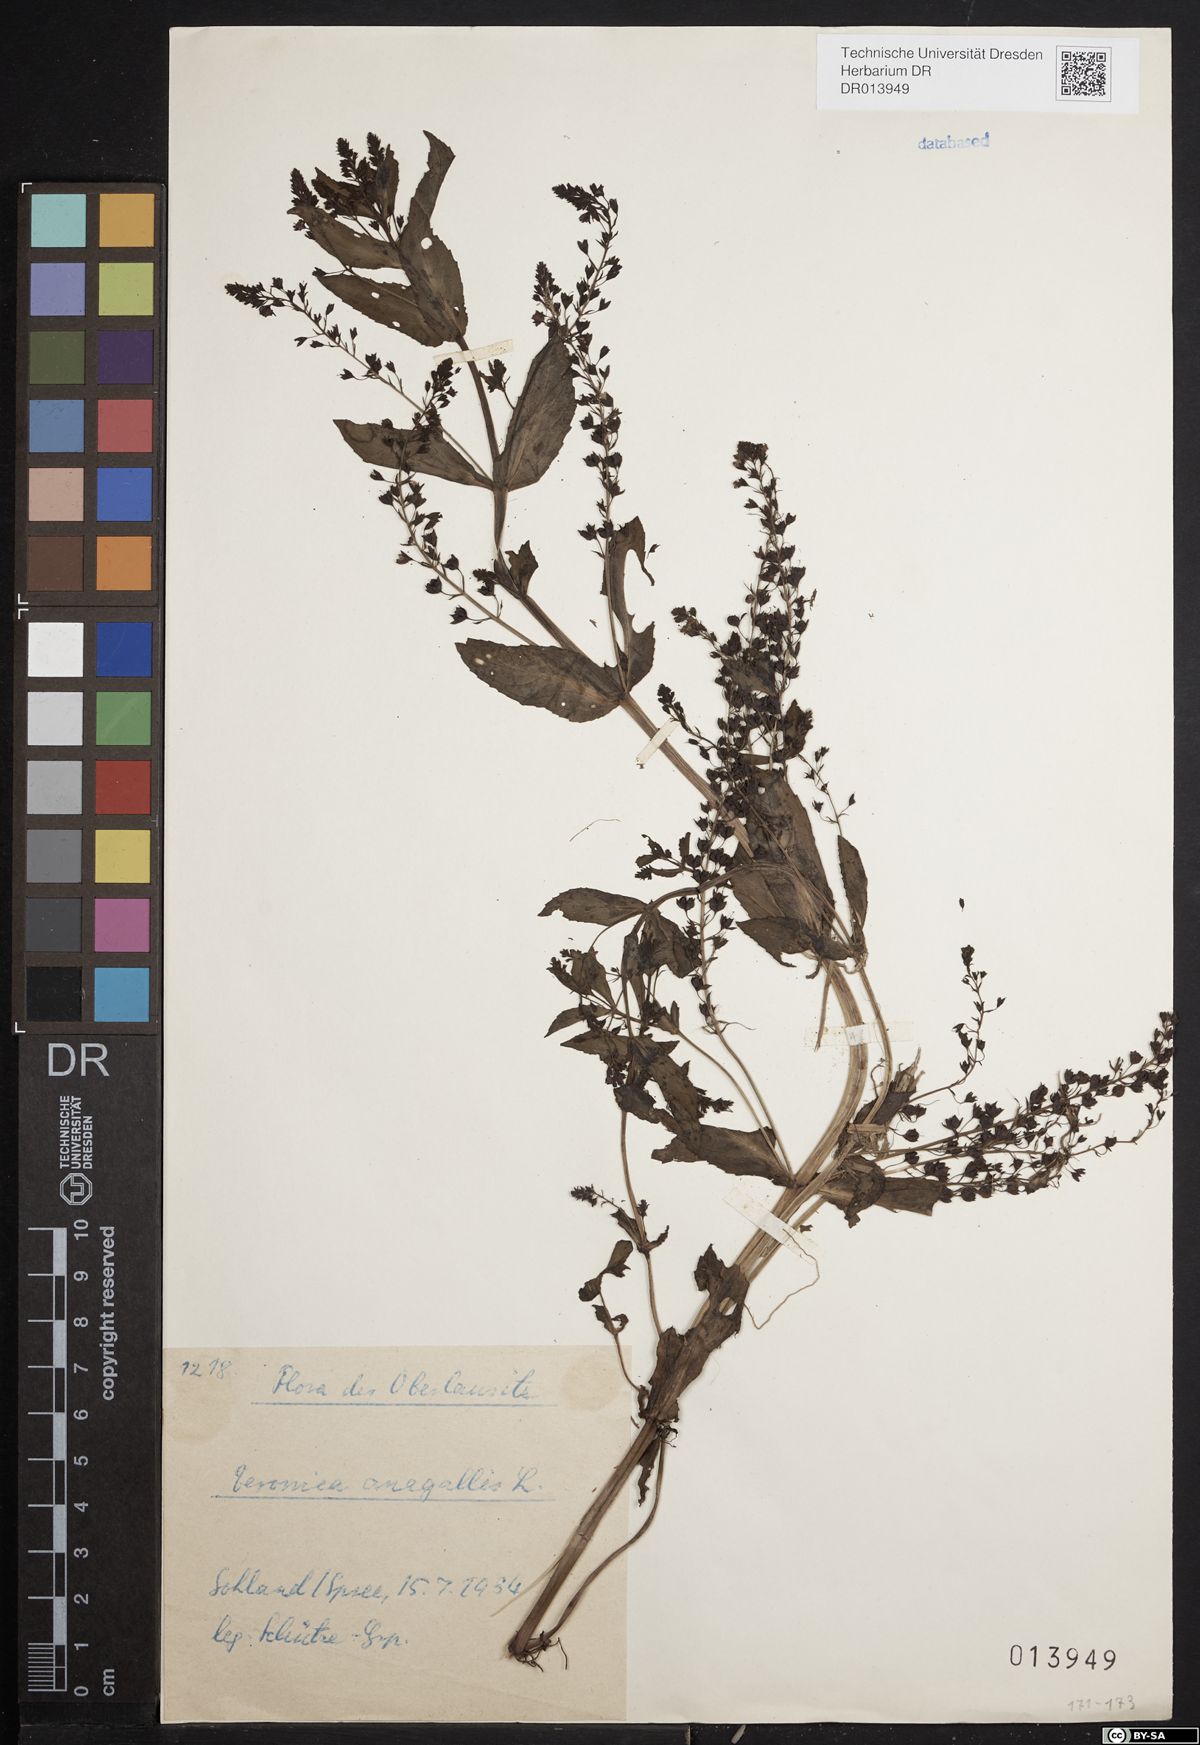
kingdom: Plantae
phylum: Tracheophyta
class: Magnoliopsida
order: Lamiales
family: Plantaginaceae
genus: Veronica
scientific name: Veronica anagallis-aquatica
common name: Water speedwell
